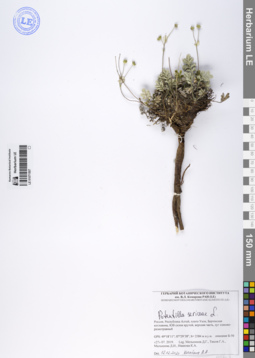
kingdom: Plantae
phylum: Tracheophyta
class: Magnoliopsida
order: Rosales
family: Rosaceae
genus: Potentilla
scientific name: Potentilla sericea
